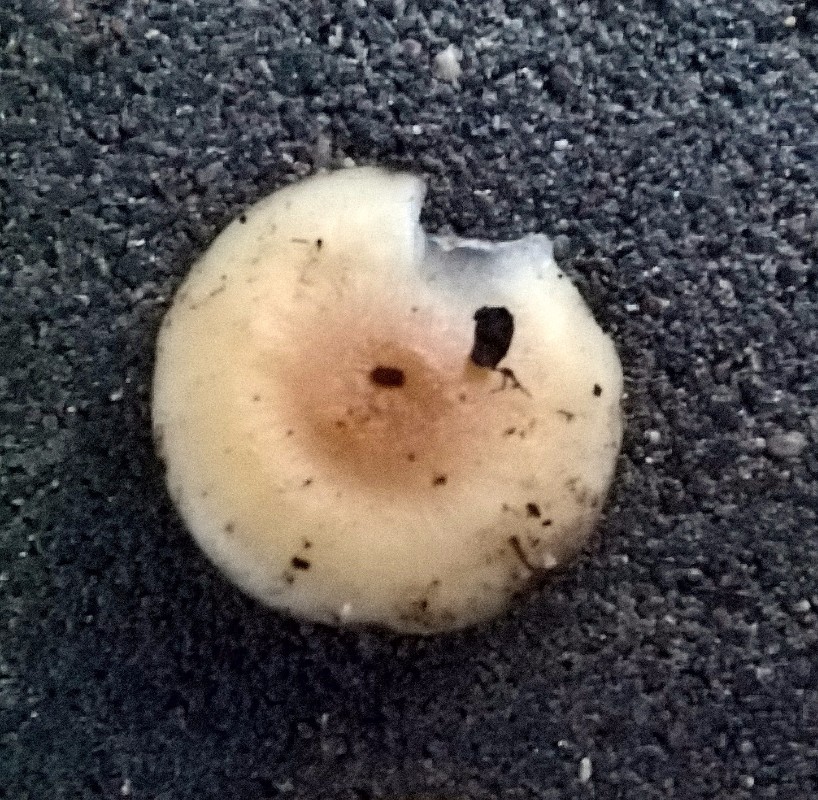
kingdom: Fungi
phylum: Basidiomycota
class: Agaricomycetes
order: Agaricales
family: Tricholomataceae
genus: Clitocybe
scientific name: Clitocybe
